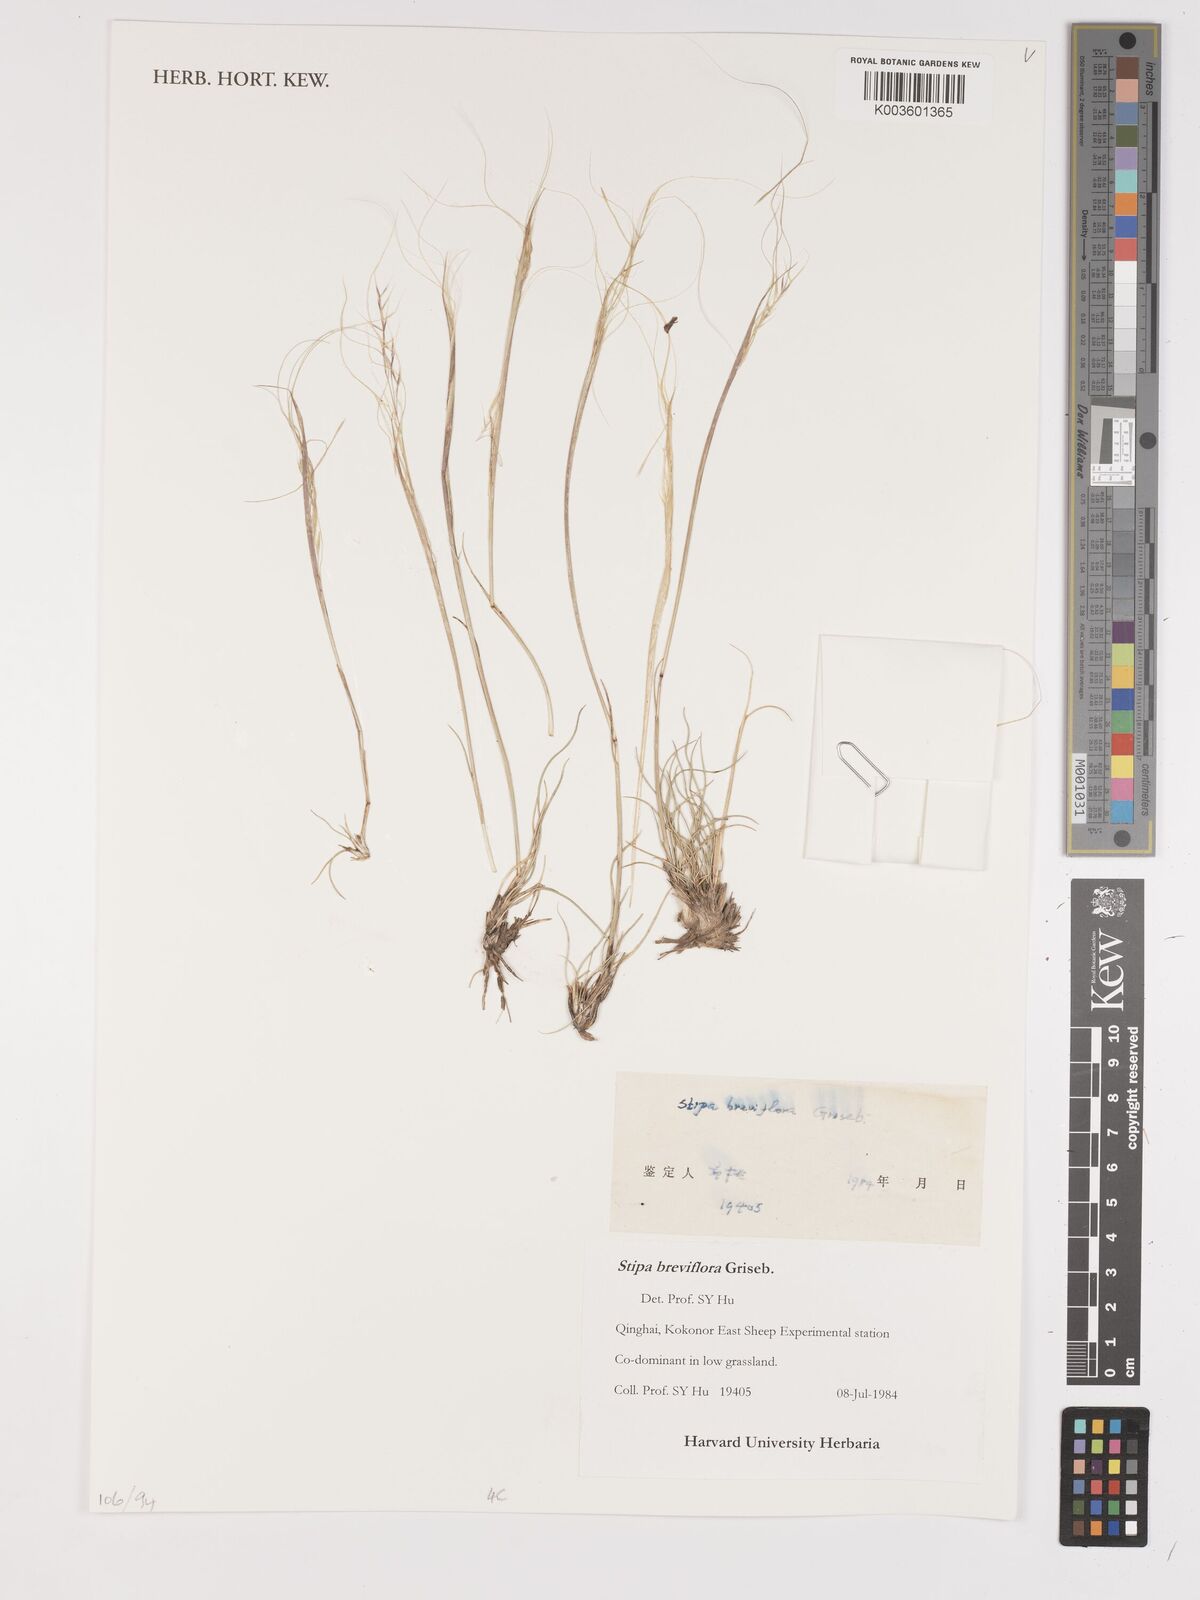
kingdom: Plantae
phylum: Tracheophyta
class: Liliopsida
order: Poales
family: Poaceae
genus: Stipa
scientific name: Stipa breviflora
